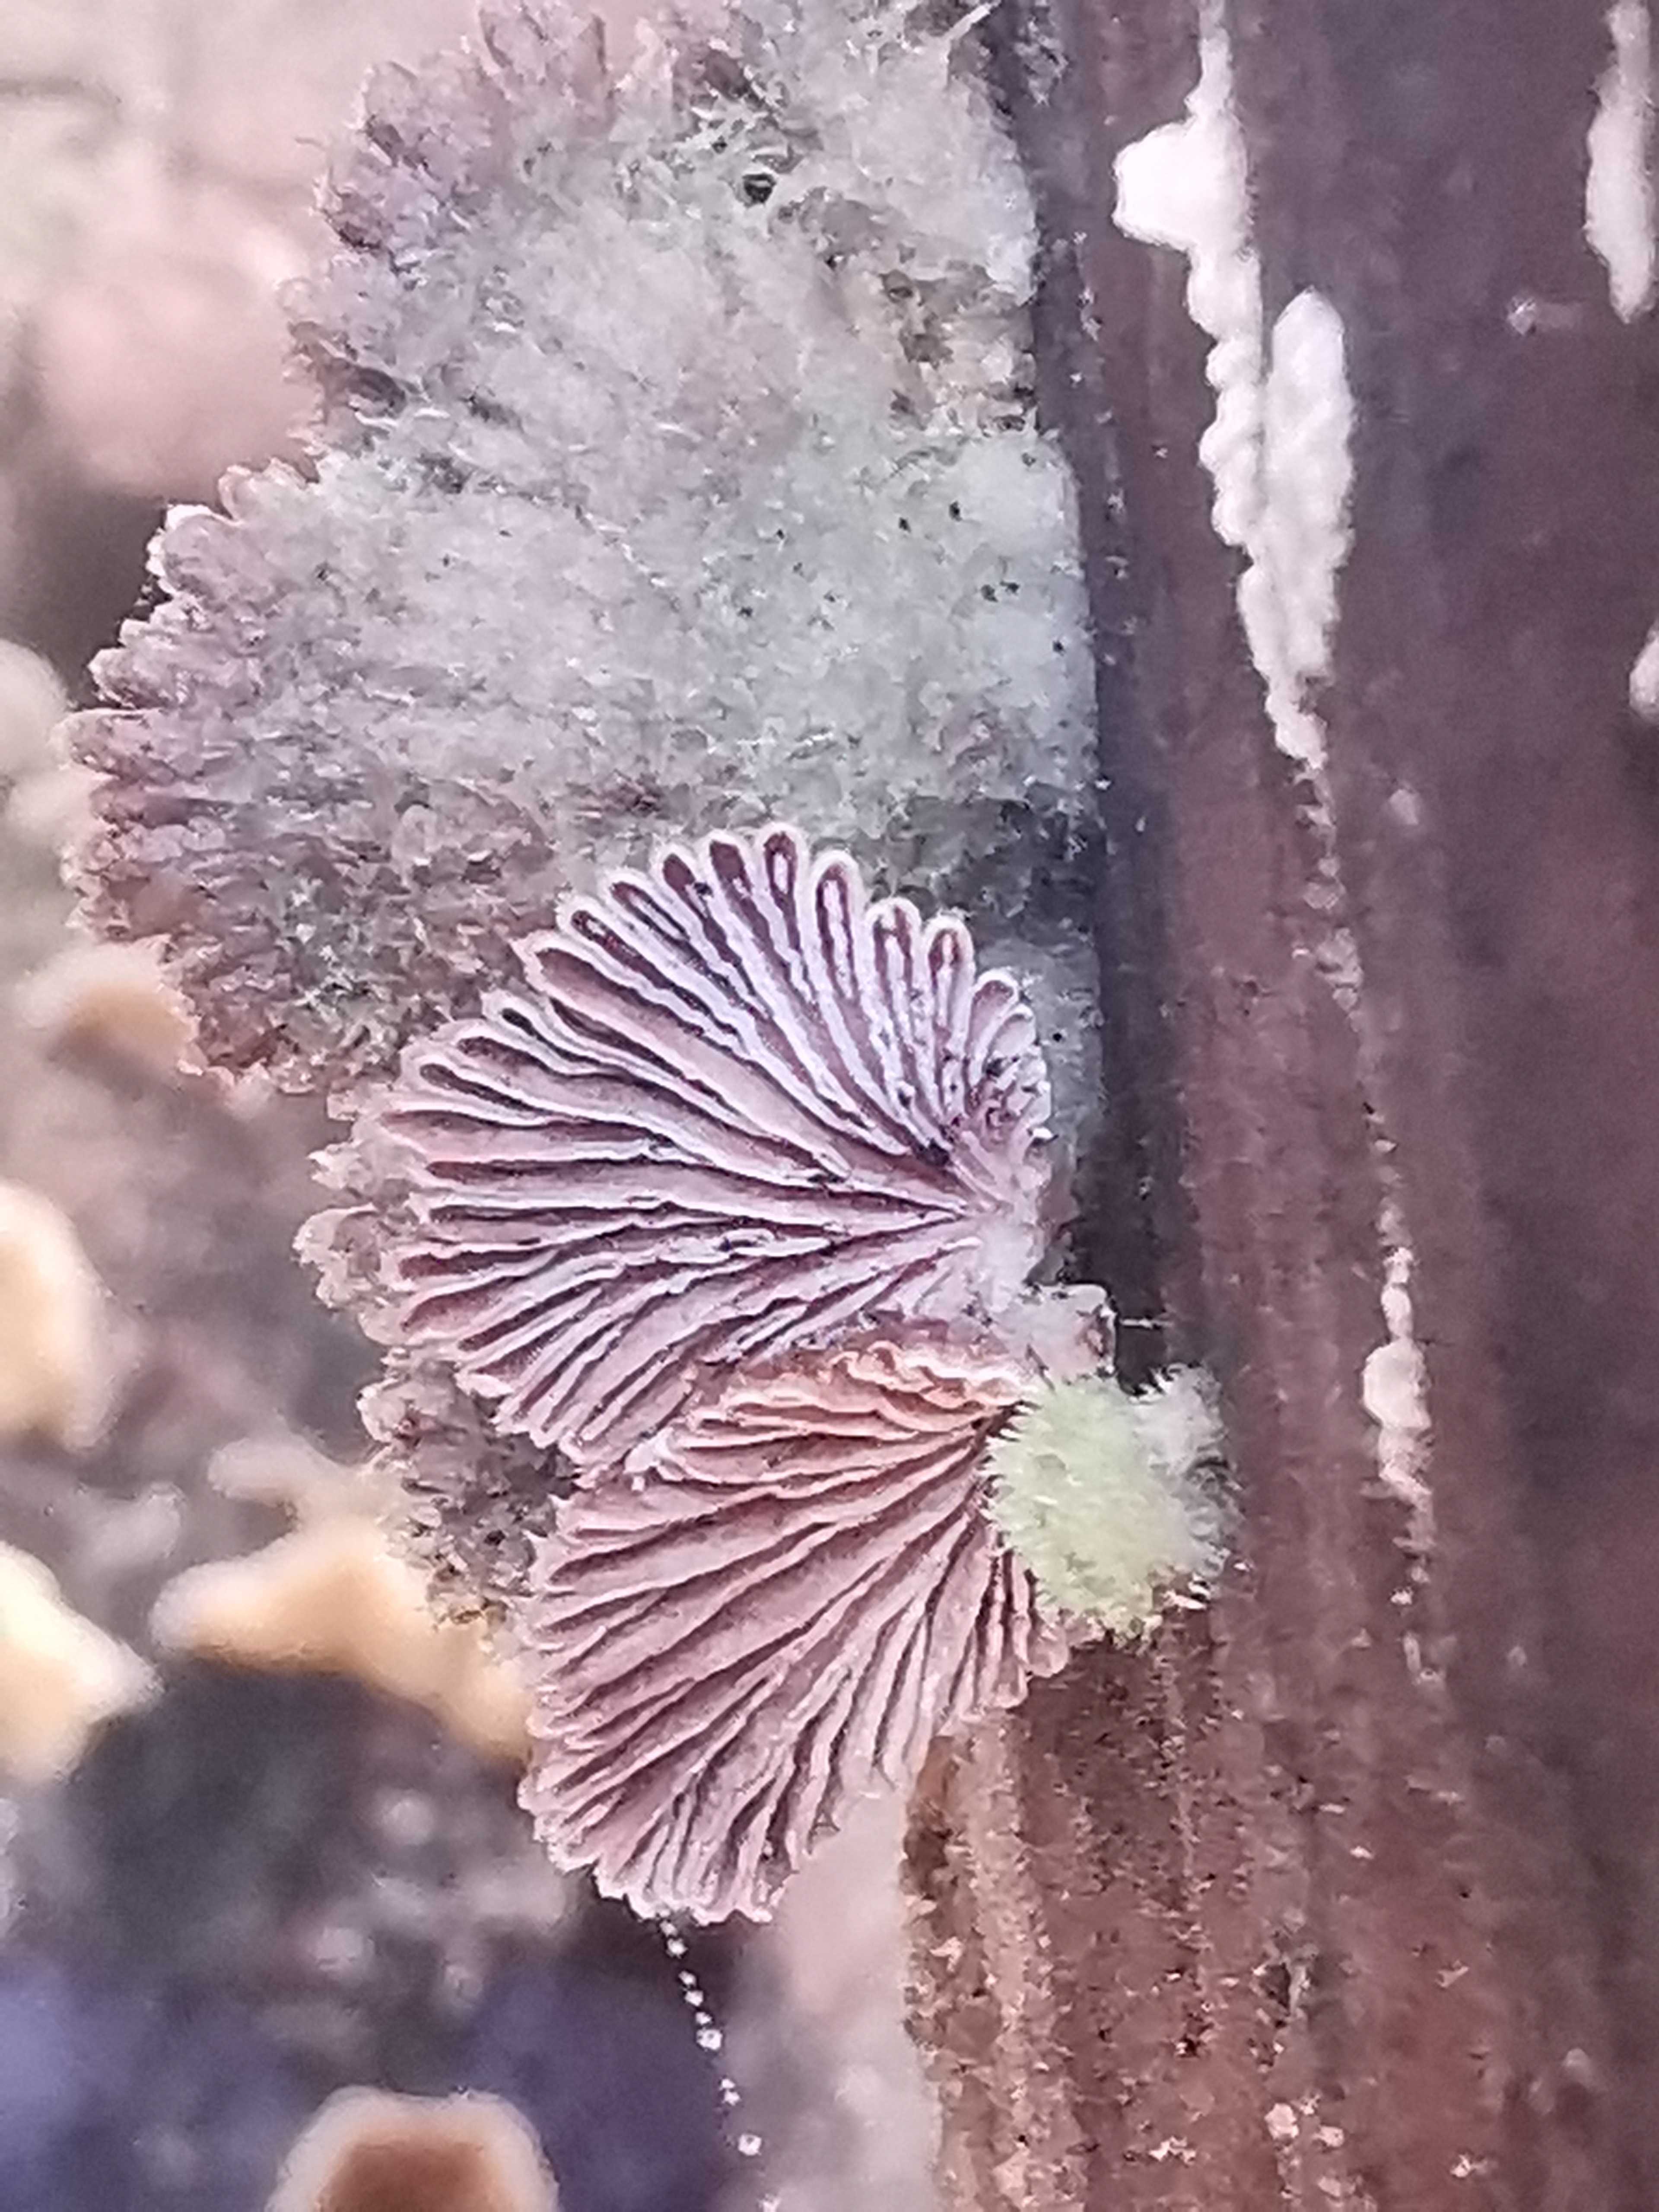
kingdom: Fungi
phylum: Basidiomycota
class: Agaricomycetes
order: Agaricales
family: Schizophyllaceae
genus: Schizophyllum
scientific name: Schizophyllum commune
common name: kløvblad
